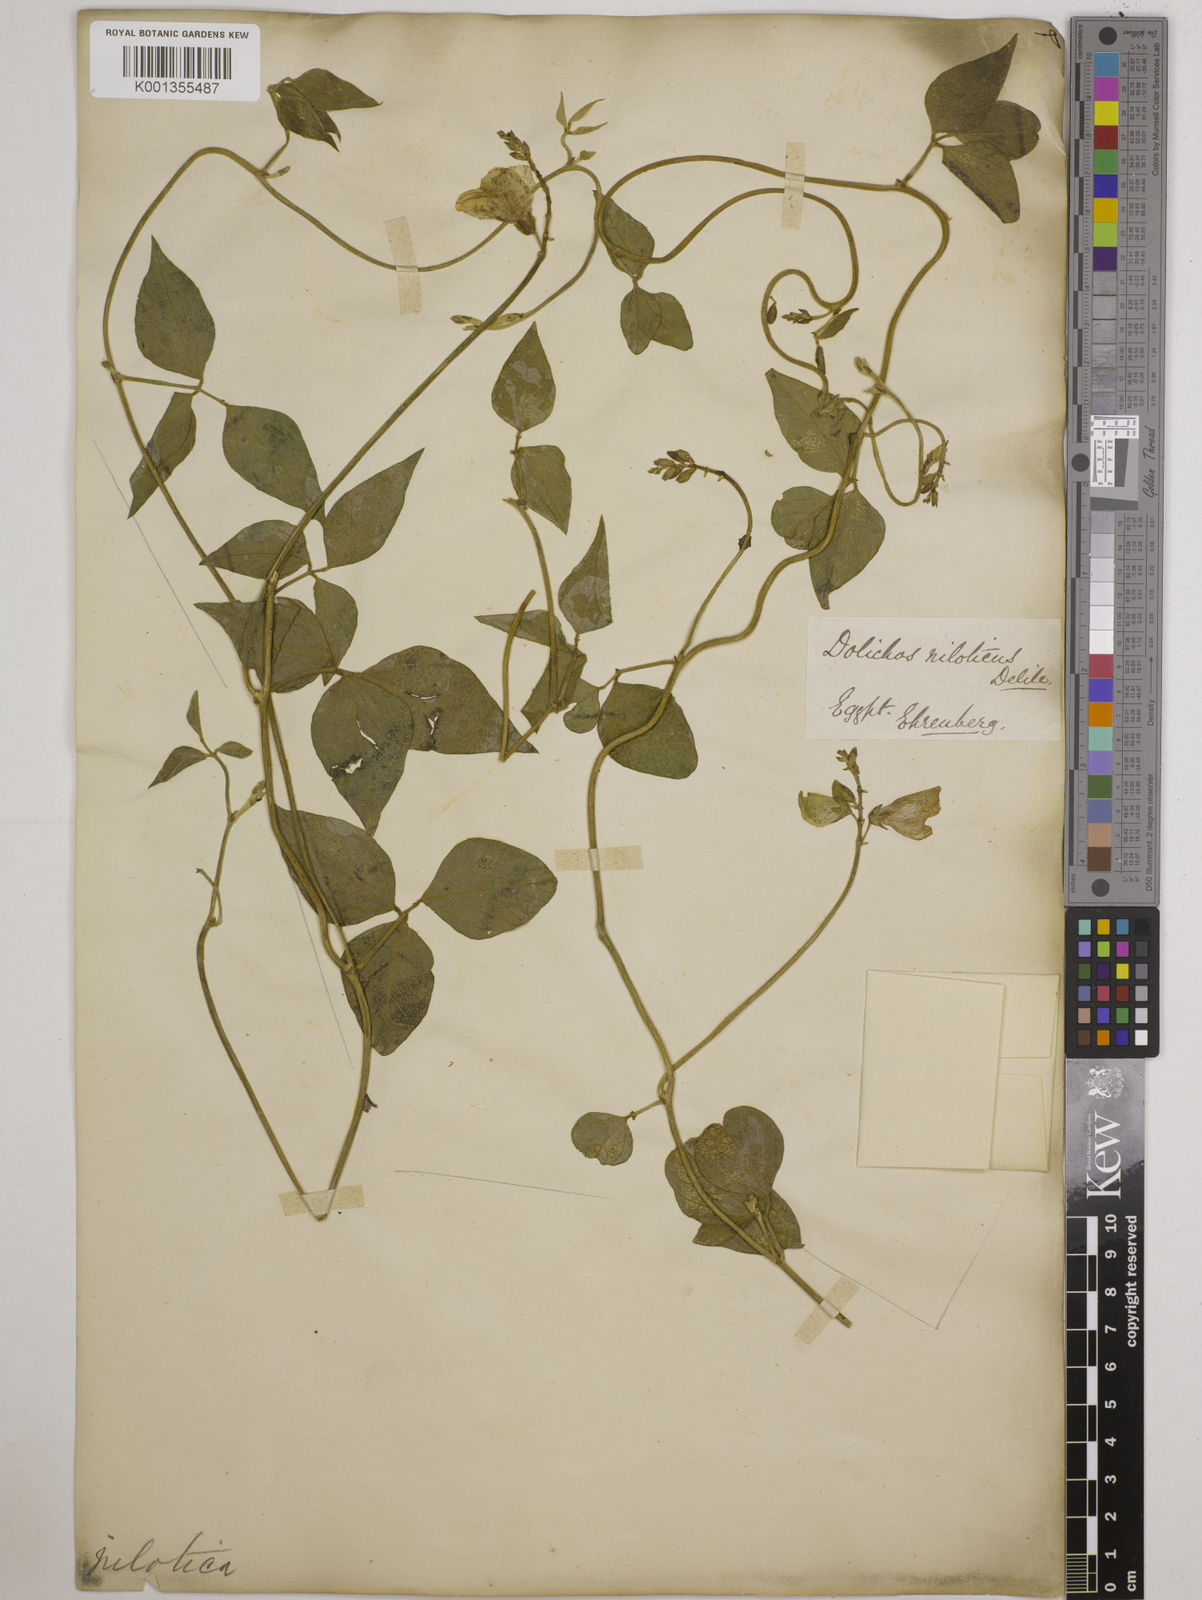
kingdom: Plantae
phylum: Tracheophyta
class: Magnoliopsida
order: Fabales
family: Fabaceae
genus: Vigna
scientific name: Vigna luteola
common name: Hairypod cowpea
